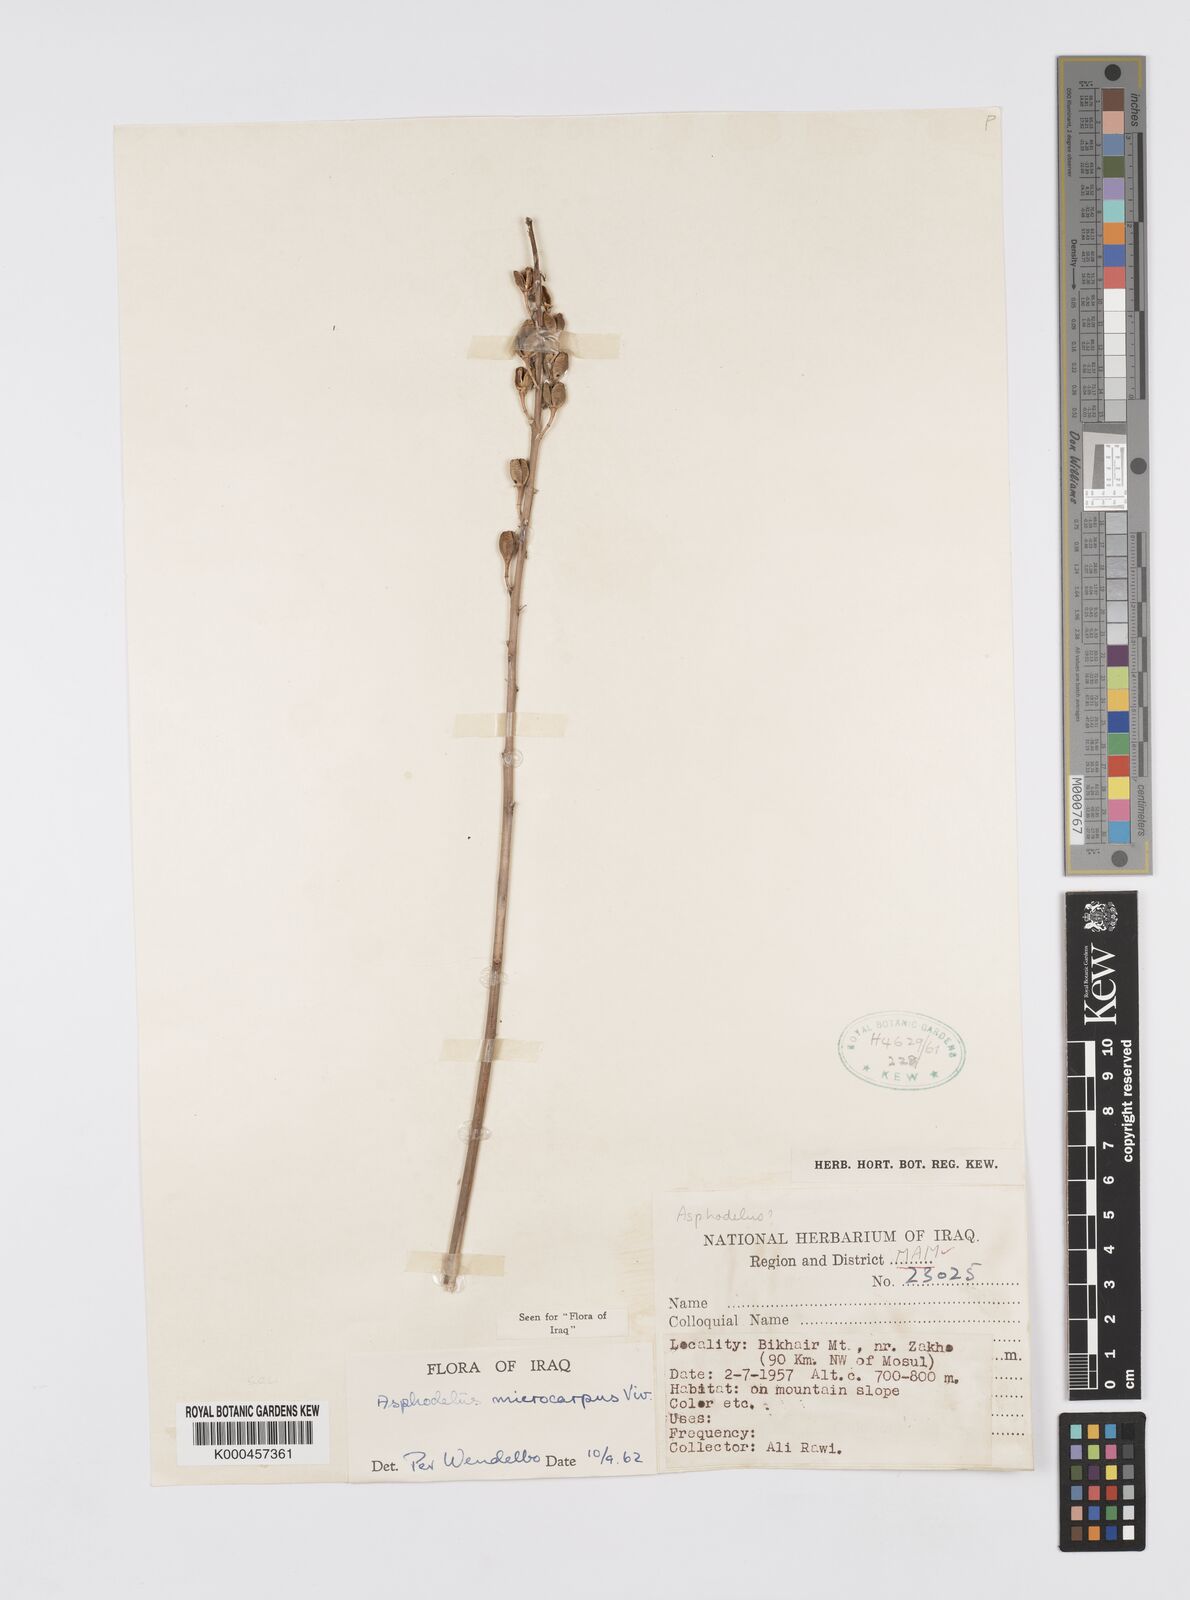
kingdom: Plantae
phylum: Tracheophyta
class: Liliopsida
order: Asparagales
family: Asphodelaceae
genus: Asphodelus
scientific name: Asphodelus aestivus
